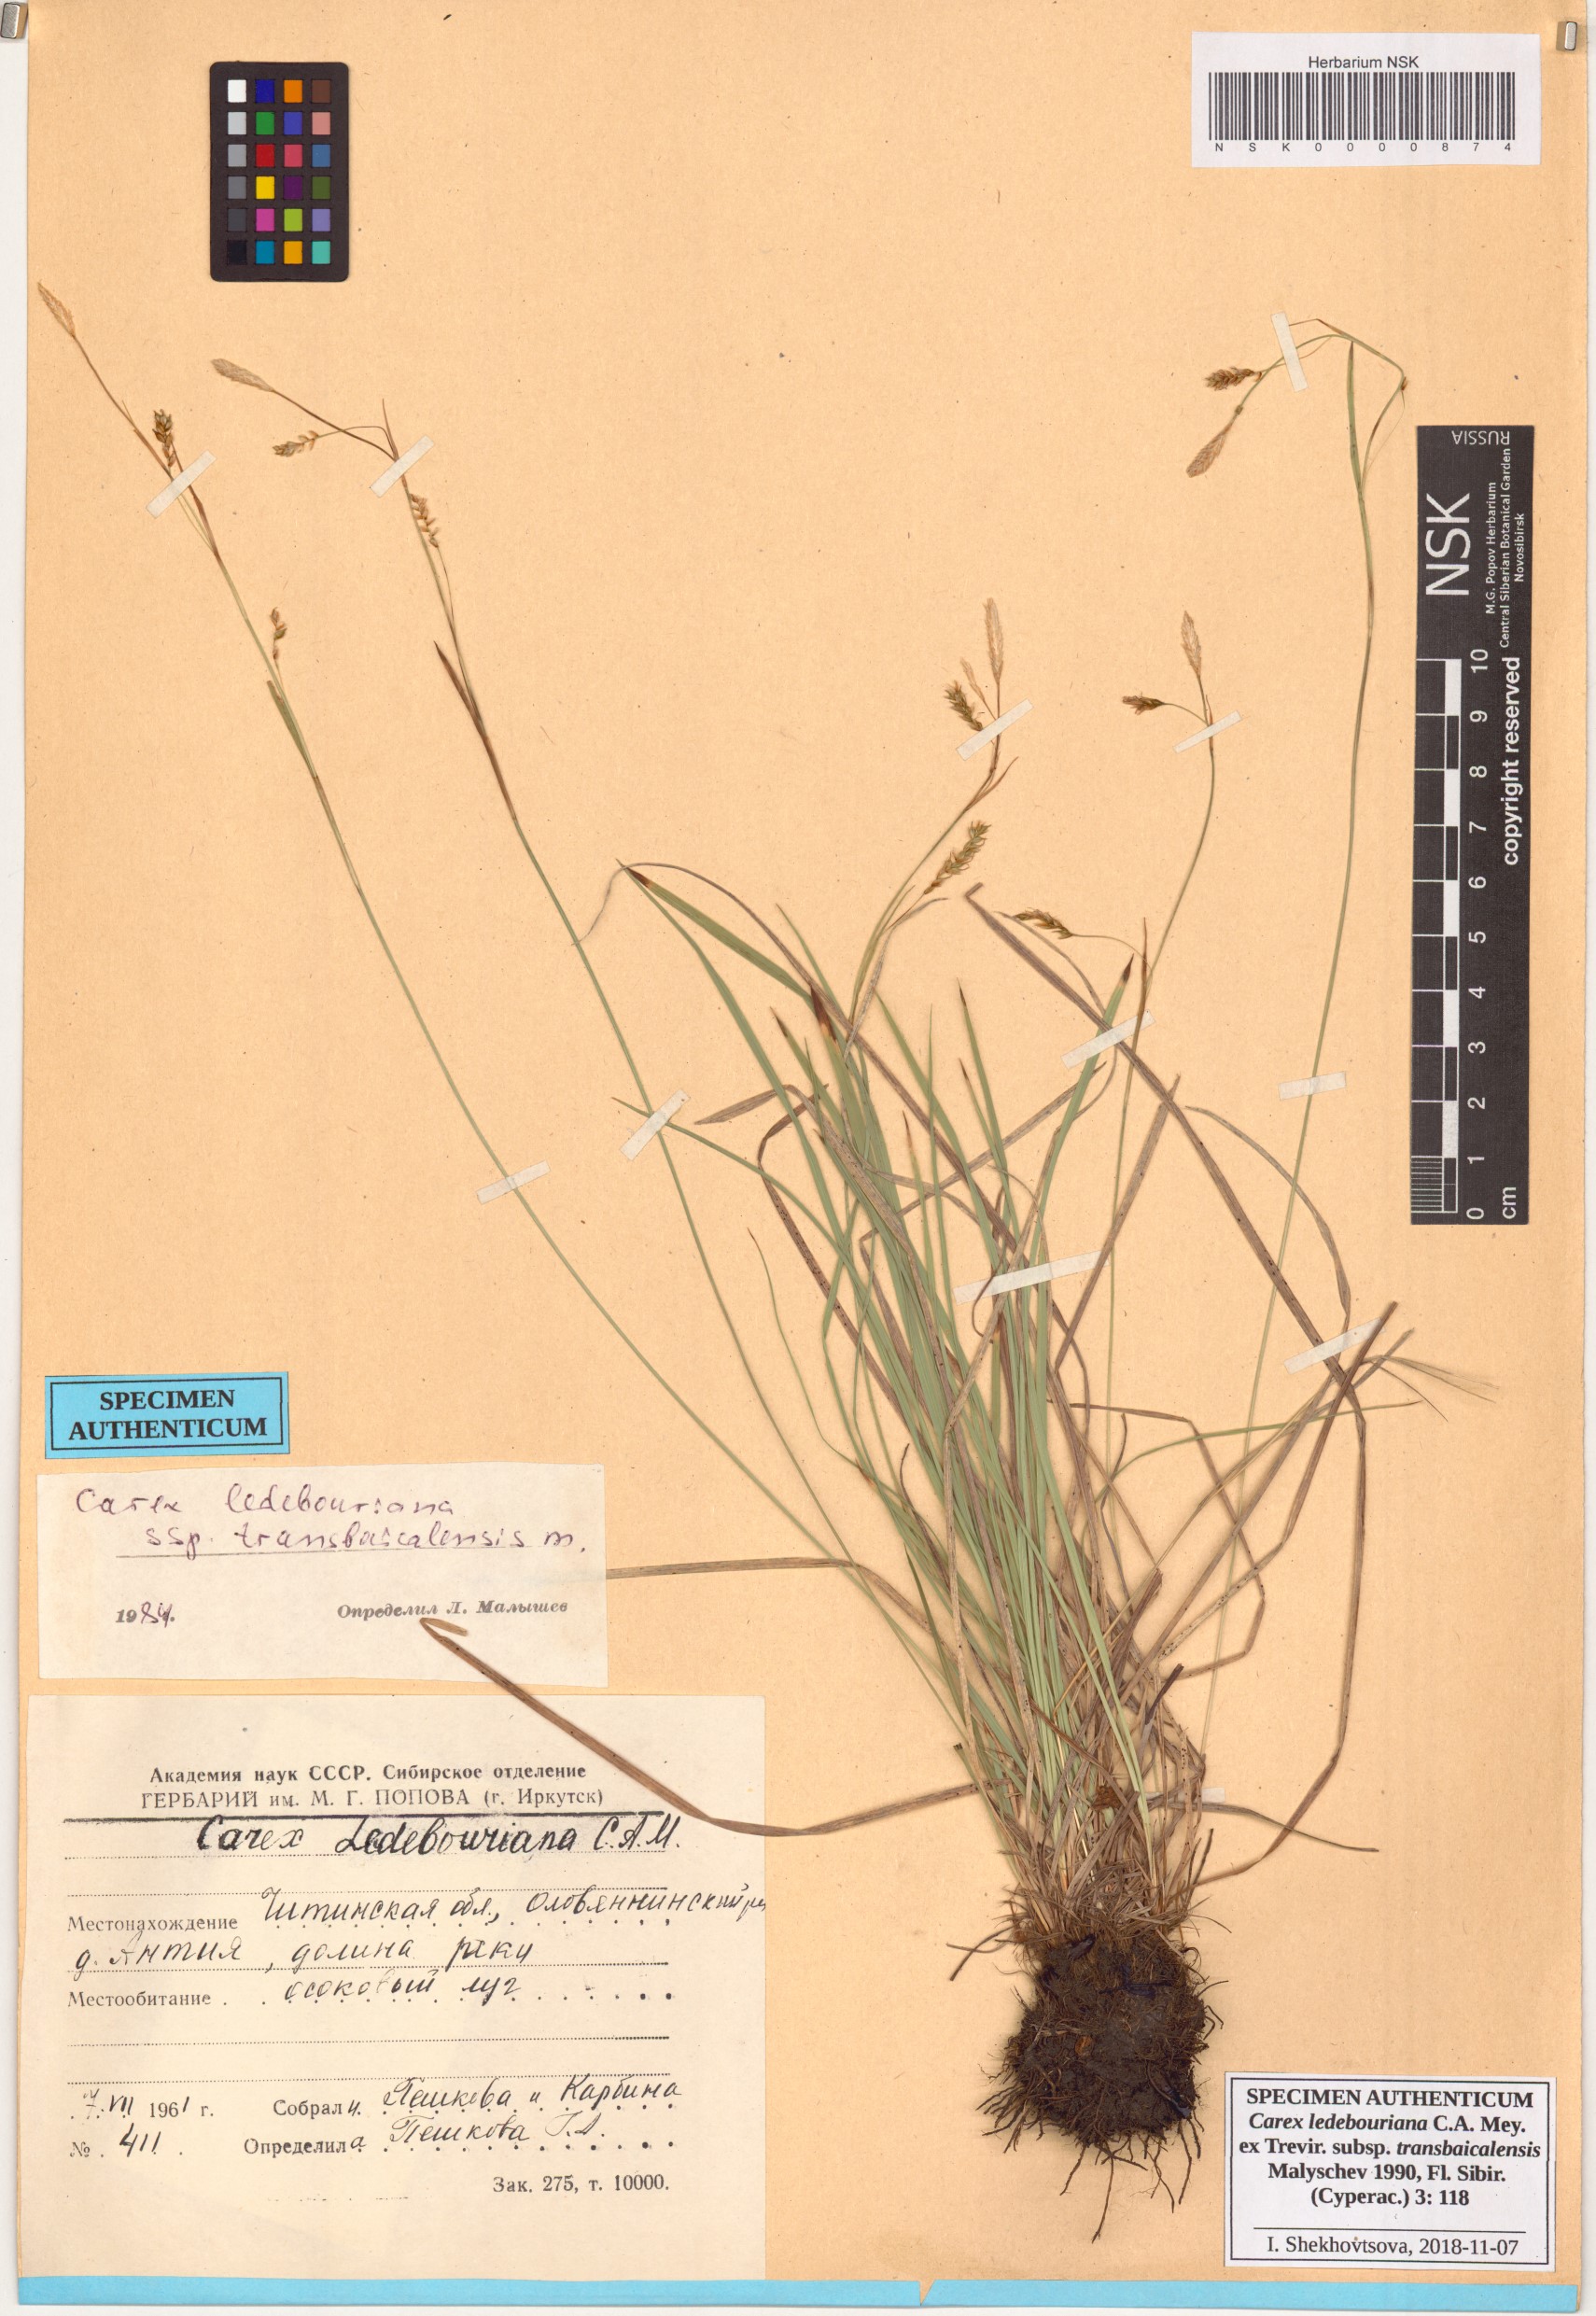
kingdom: Plantae
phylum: Tracheophyta
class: Liliopsida
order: Poales
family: Cyperaceae
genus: Carex
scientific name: Carex ledebouriana
